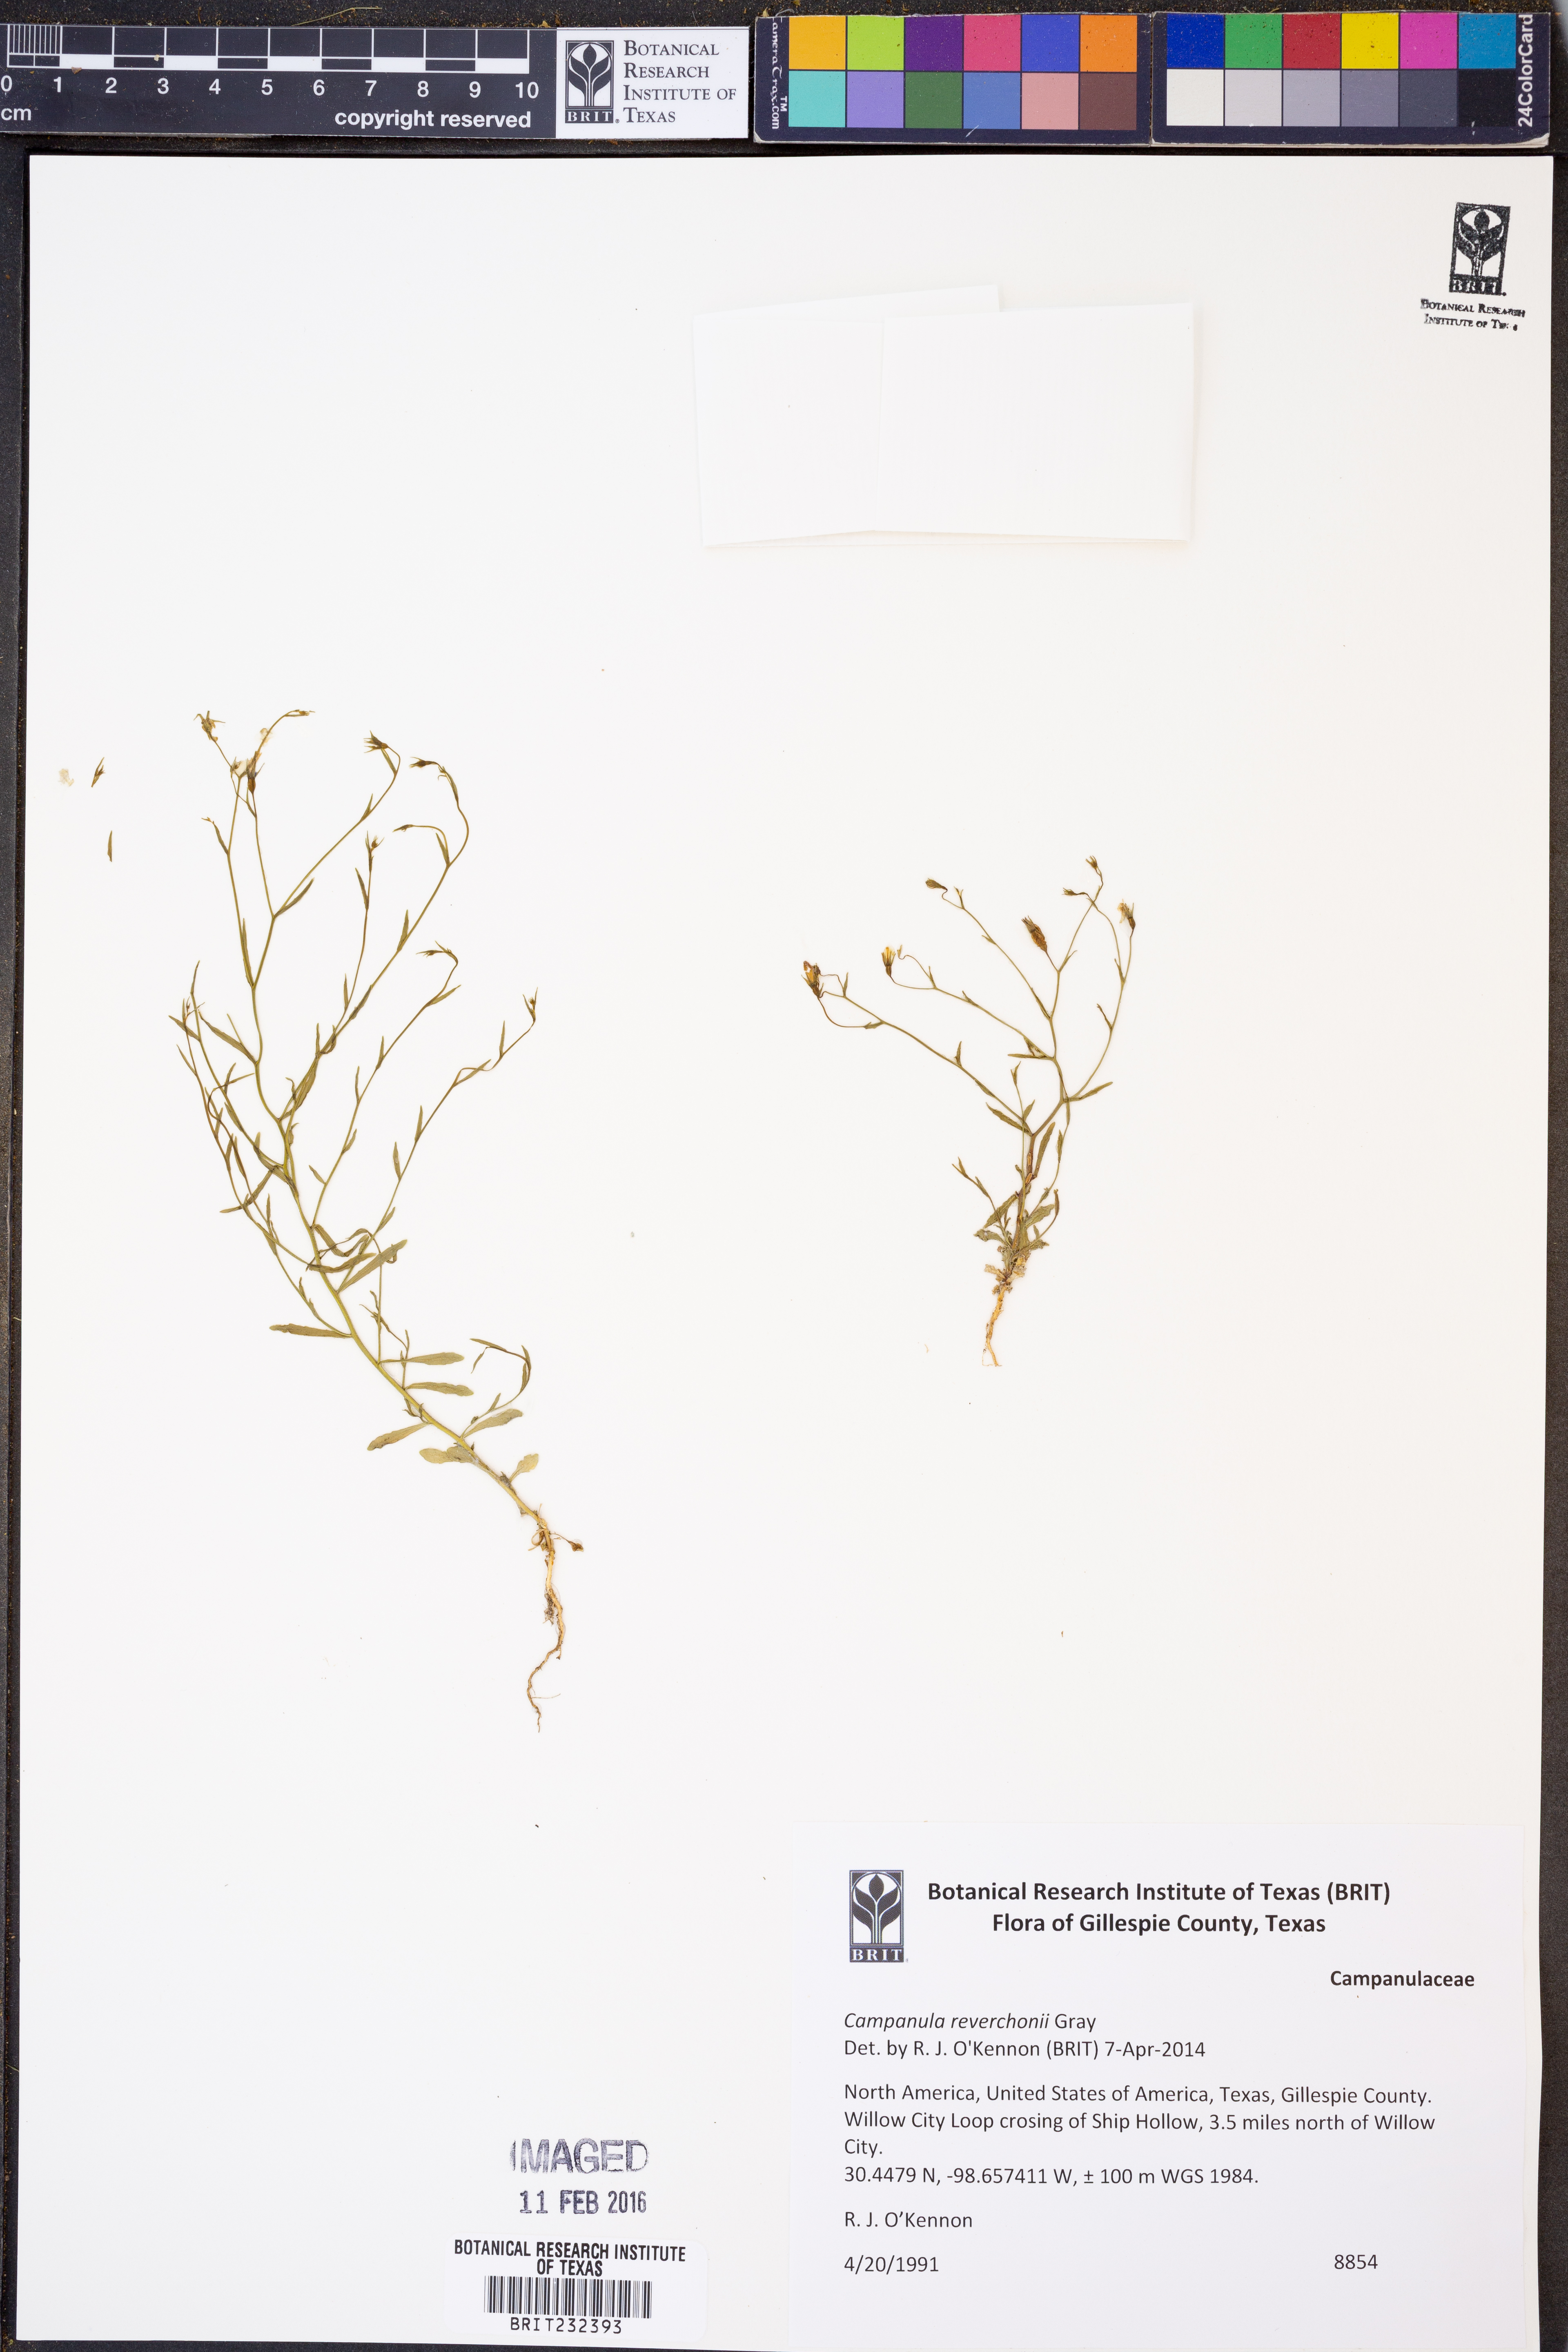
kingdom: Plantae
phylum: Tracheophyta
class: Magnoliopsida
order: Asterales
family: Campanulaceae
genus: Poolea
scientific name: Poolea reverchonii
